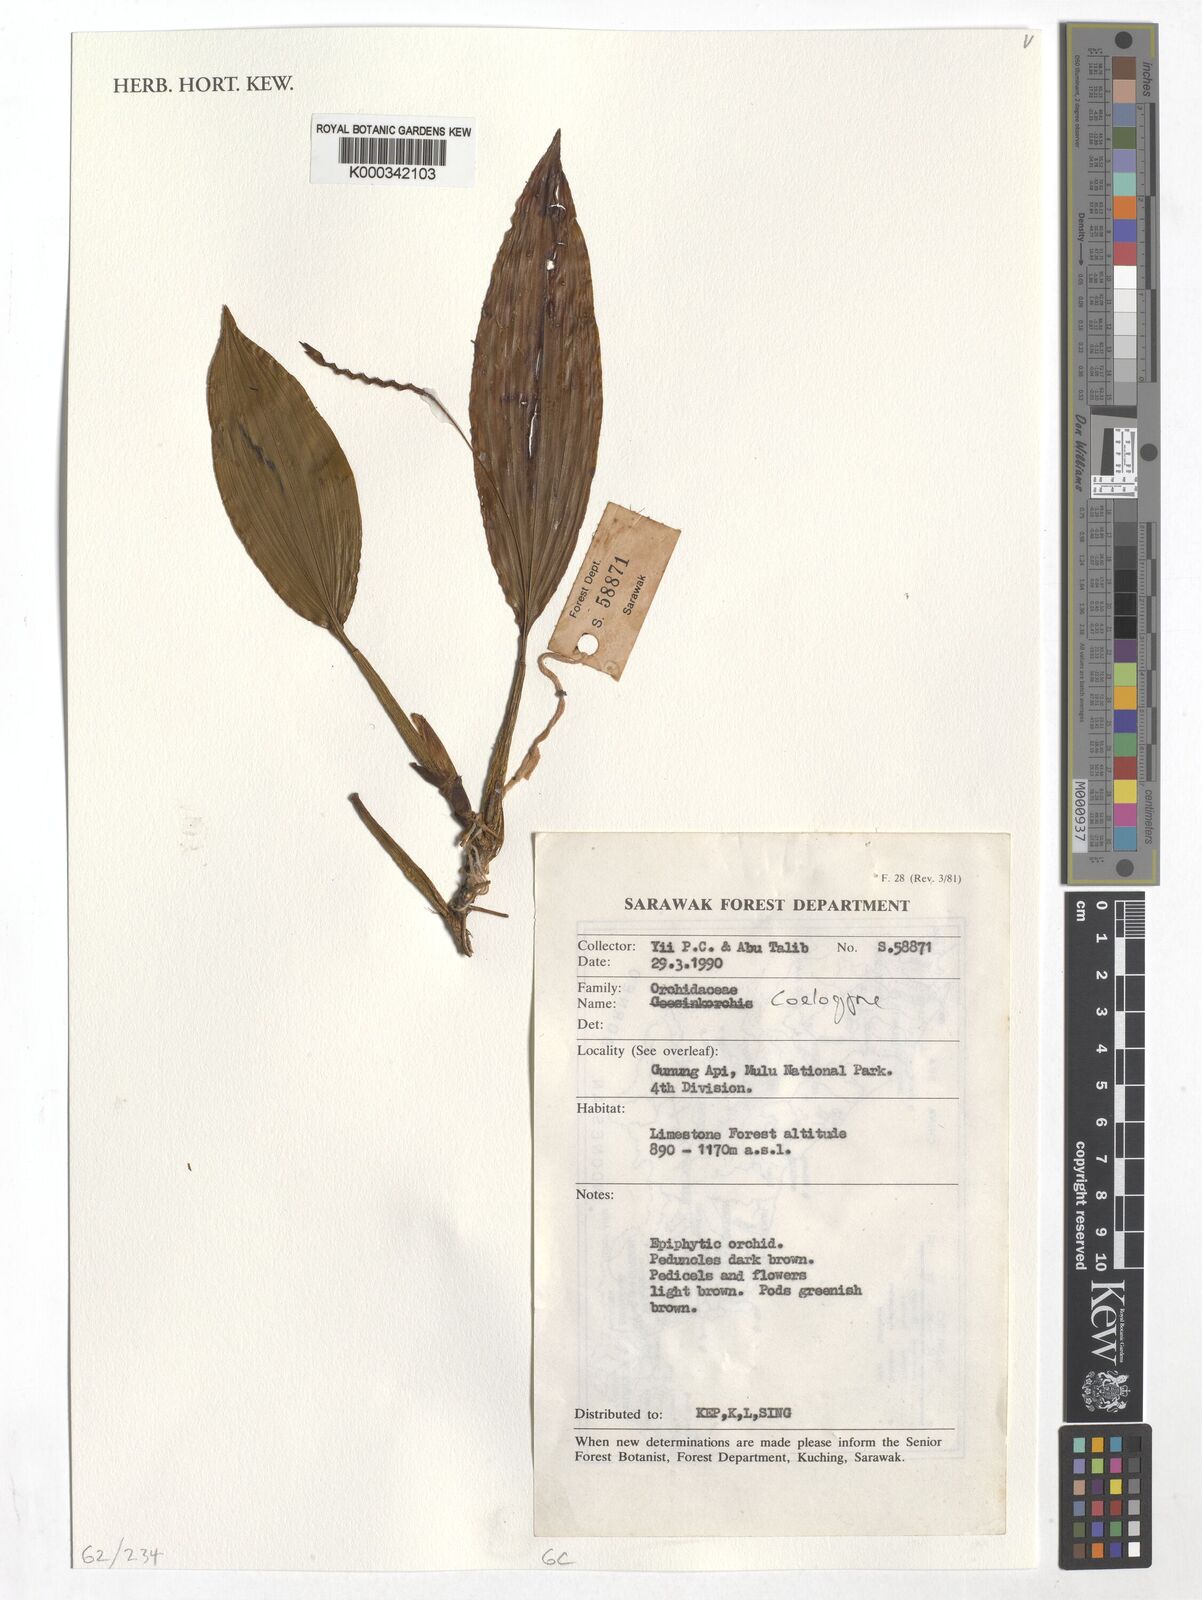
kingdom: Plantae
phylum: Tracheophyta
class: Liliopsida
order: Asparagales
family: Orchidaceae
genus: Coelogyne
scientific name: Coelogyne
